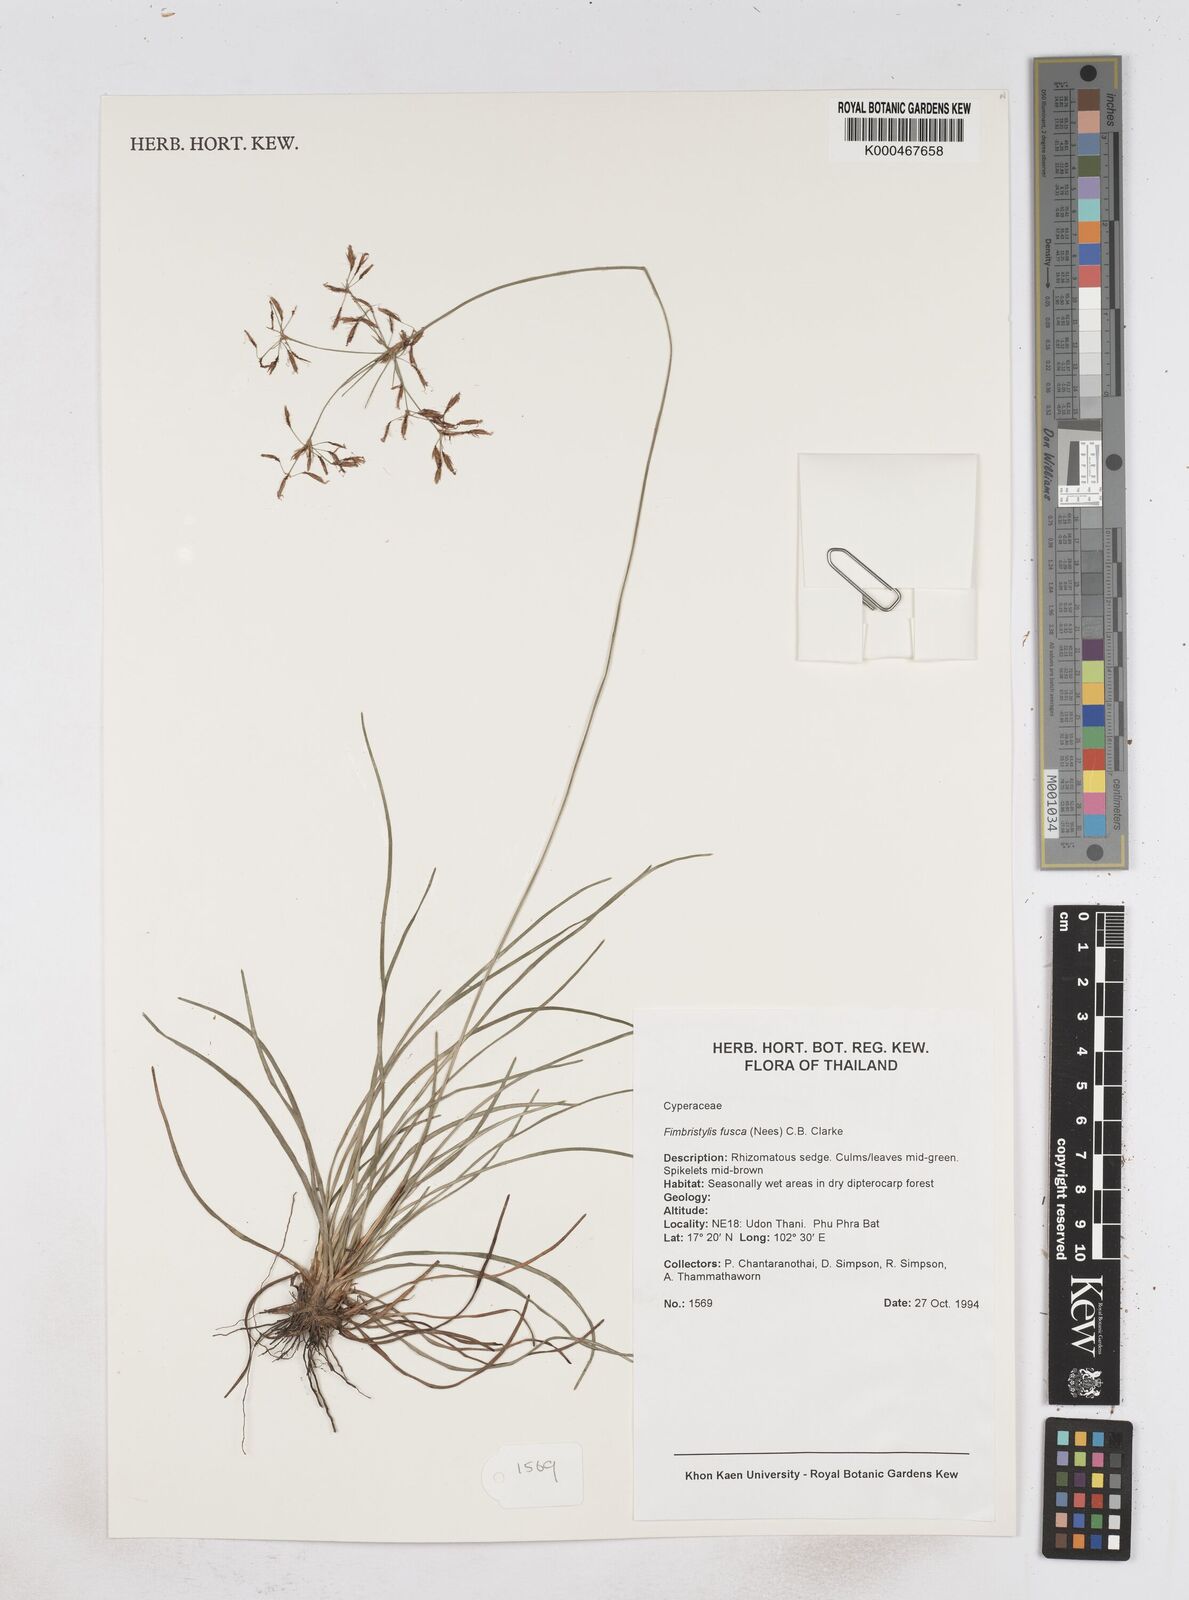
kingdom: Plantae
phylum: Tracheophyta
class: Liliopsida
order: Poales
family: Cyperaceae
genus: Fimbristylis
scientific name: Fimbristylis fusca
